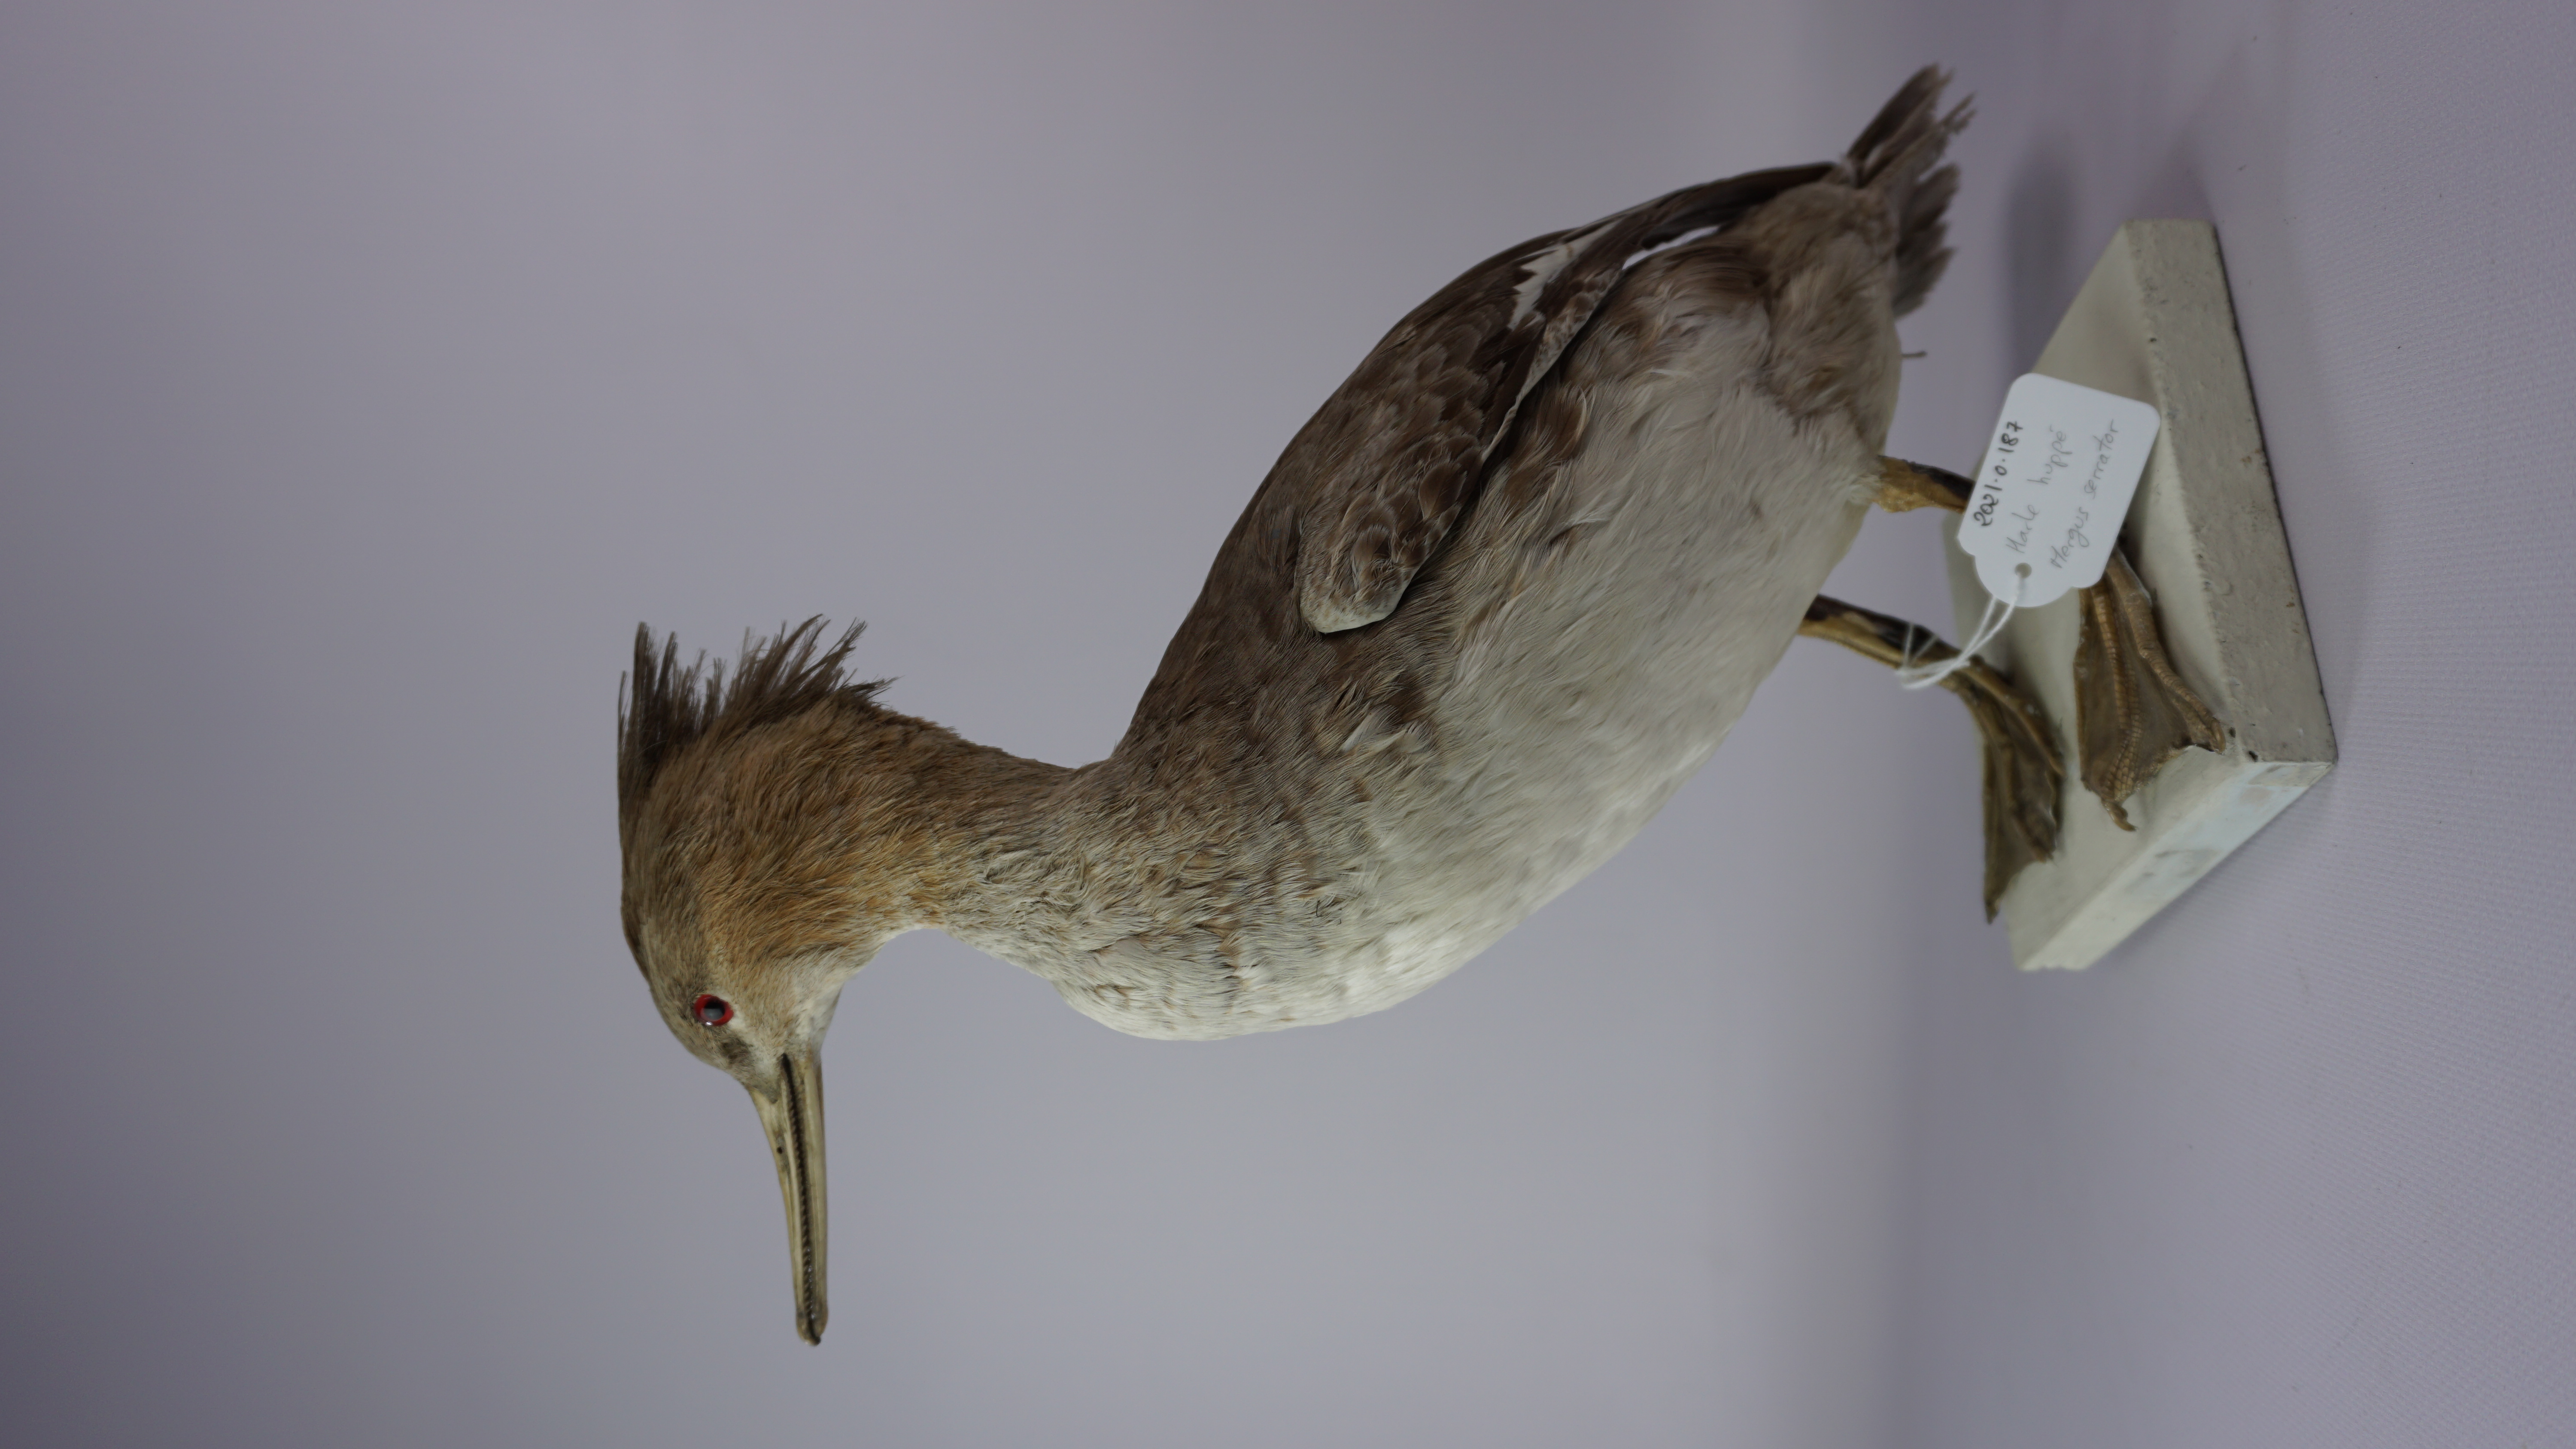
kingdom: Animalia
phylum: Chordata
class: Aves
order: Anseriformes
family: Anatidae
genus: Mergus
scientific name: Mergus serrator
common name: Red-breasted merganser
